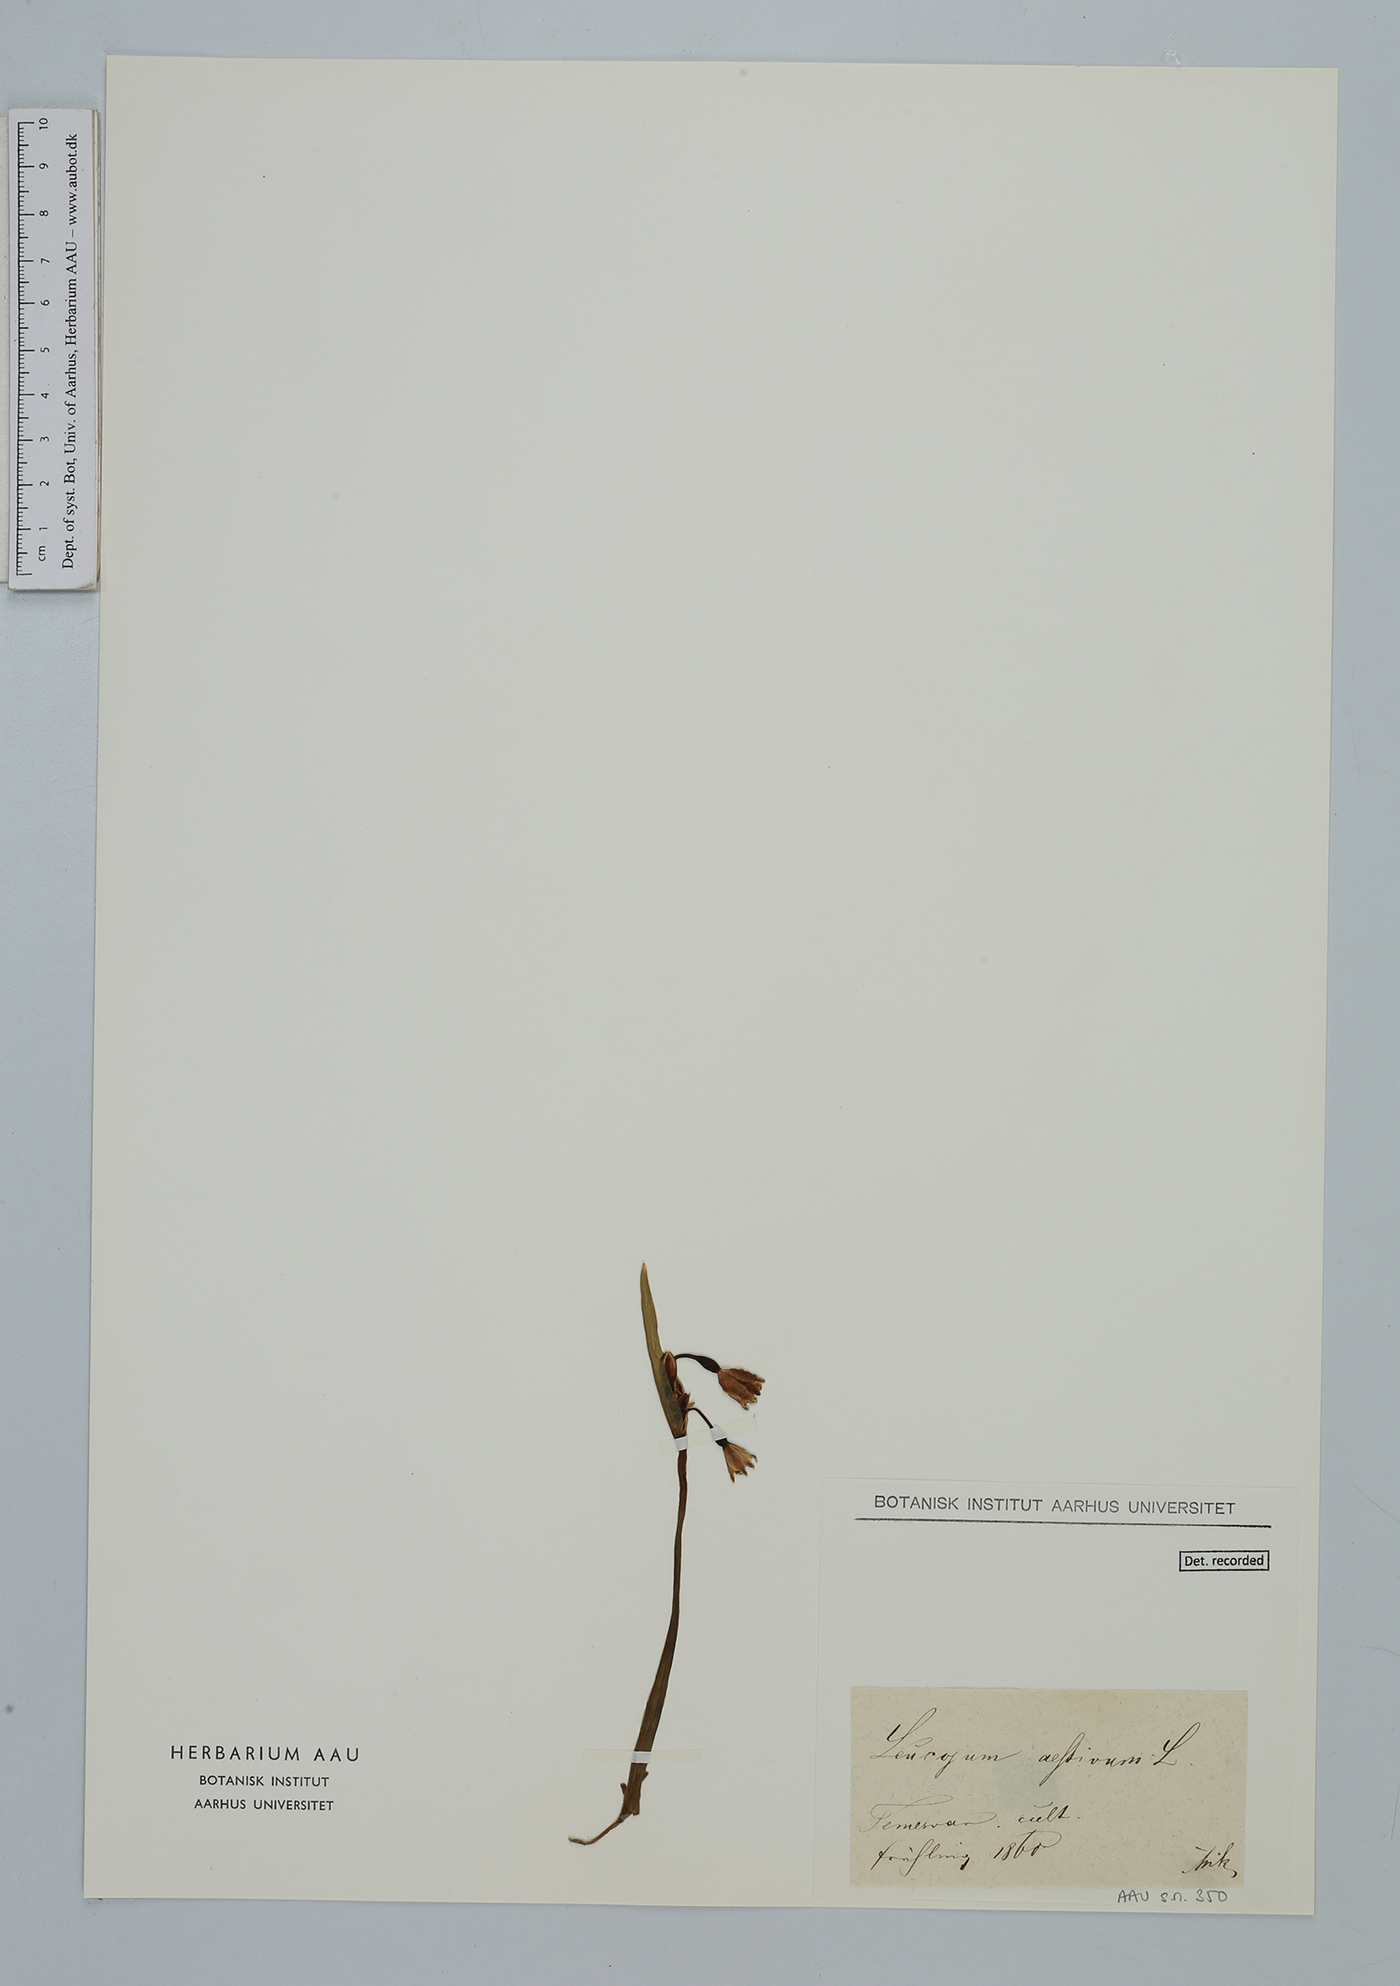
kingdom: Plantae
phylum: Tracheophyta
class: Liliopsida
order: Asparagales
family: Amaryllidaceae
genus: Leucojum
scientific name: Leucojum aestivum
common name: Summer snowflake
